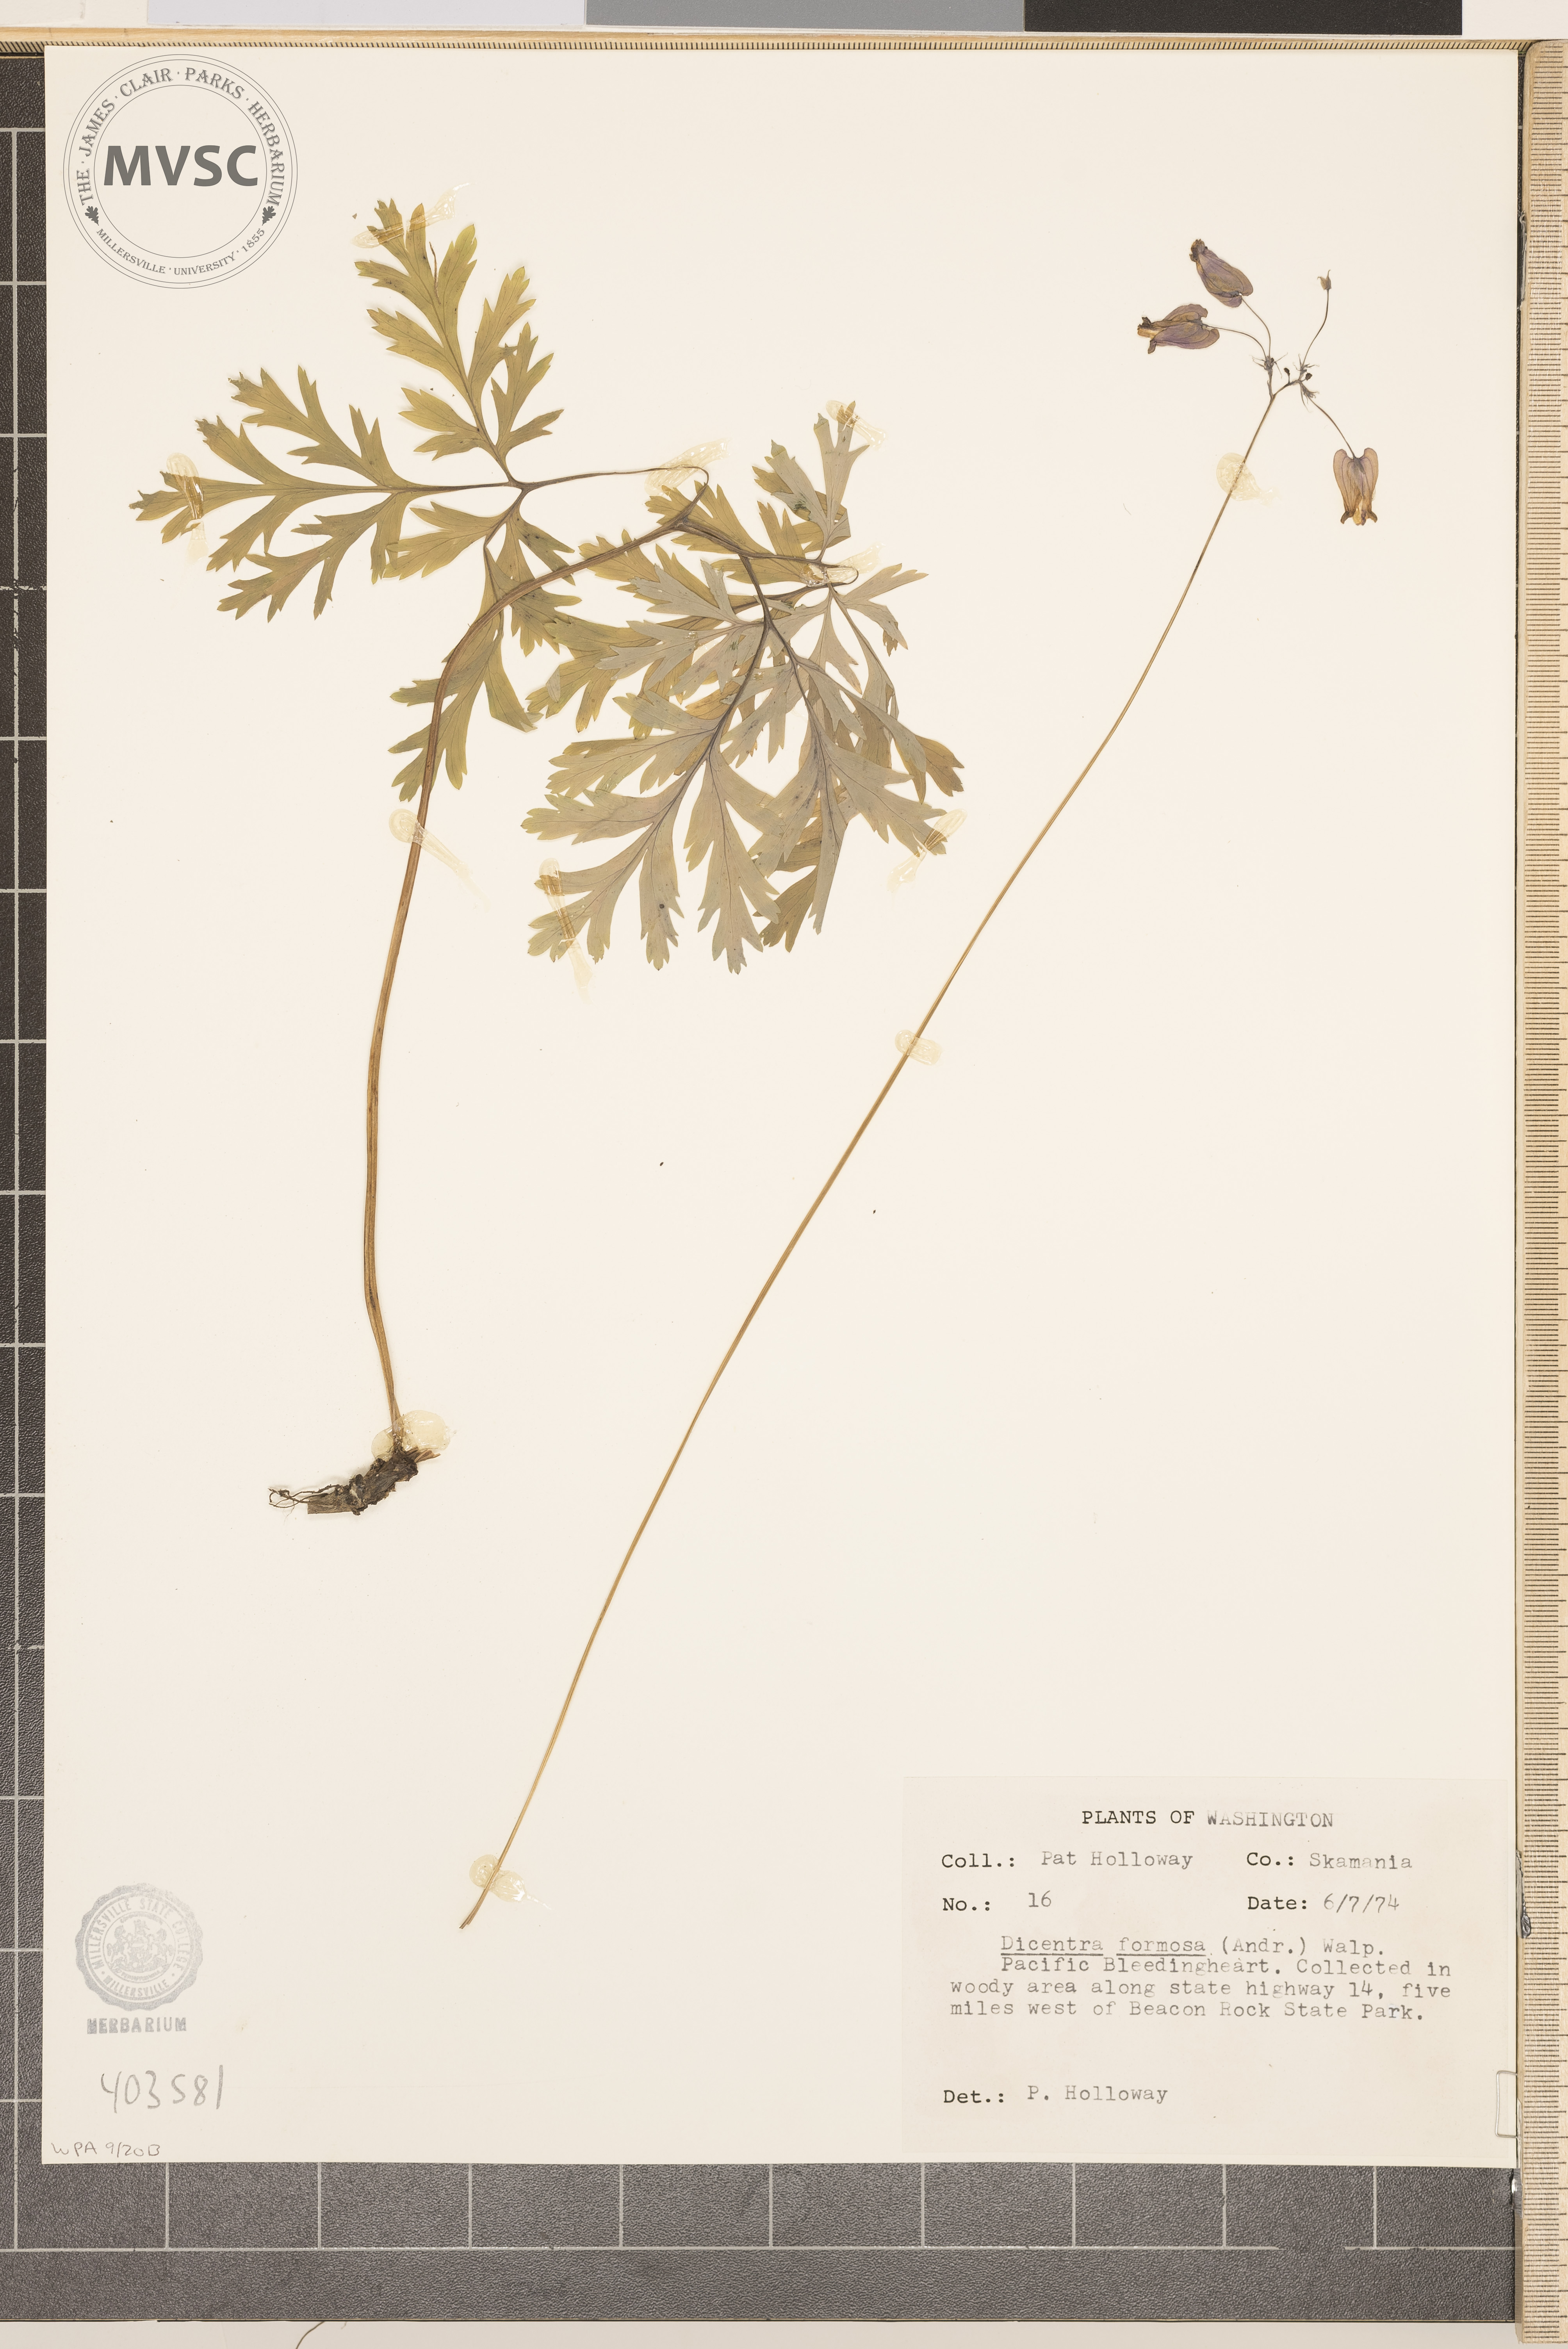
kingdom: Plantae
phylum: Tracheophyta
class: Magnoliopsida
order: Ranunculales
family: Papaveraceae
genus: Dicentra
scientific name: Dicentra formosa
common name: Pacific Bleedingheart
